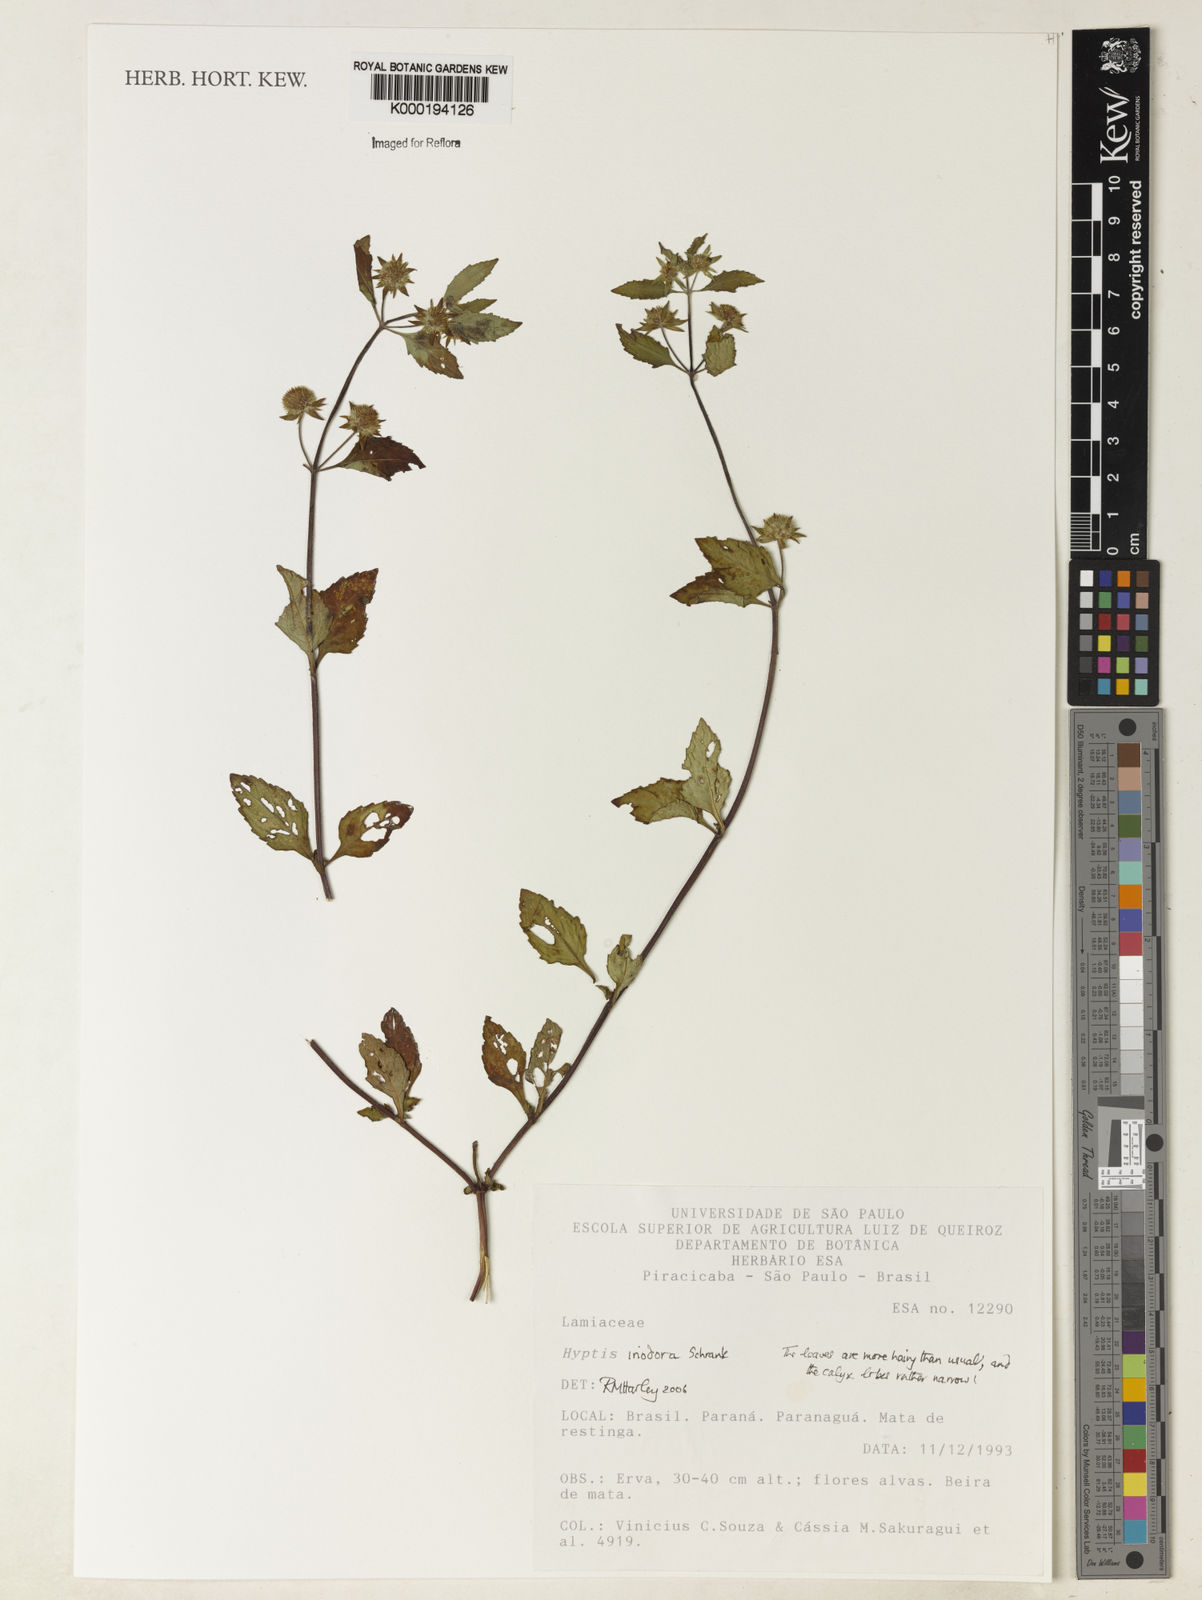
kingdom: Plantae
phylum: Tracheophyta
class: Magnoliopsida
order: Lamiales
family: Lamiaceae
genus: Hyptis
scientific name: Hyptis radicans
